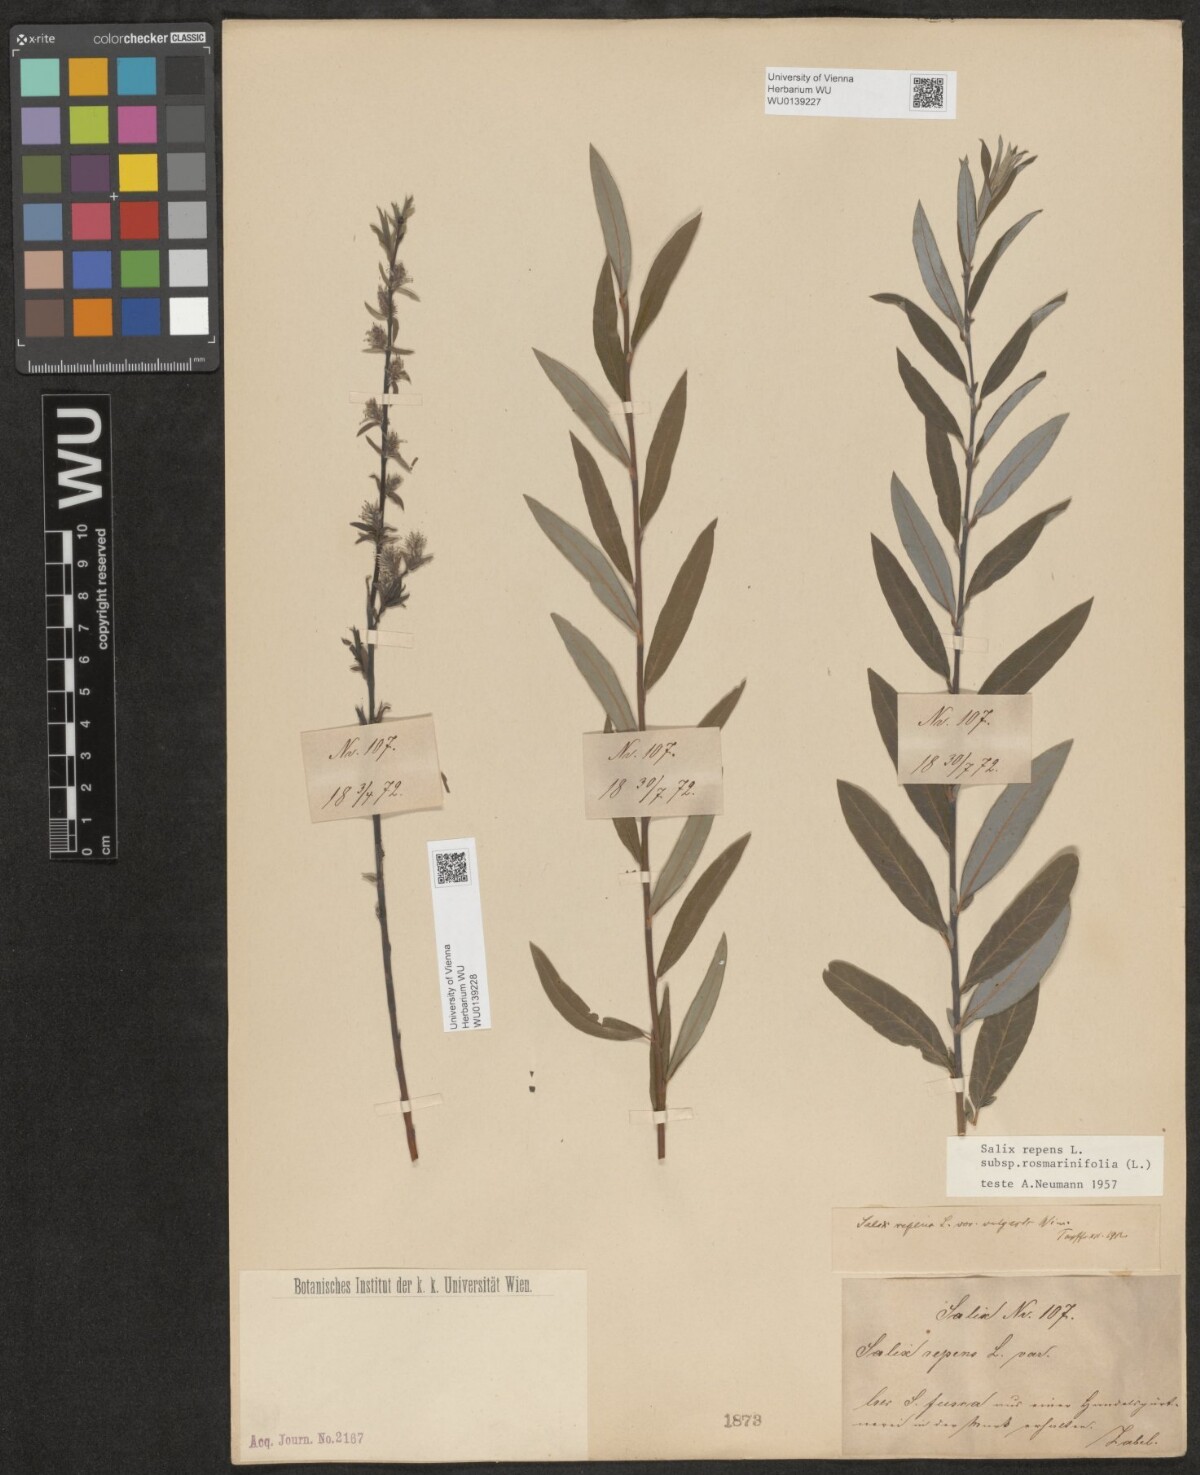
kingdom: Plantae
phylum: Tracheophyta
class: Magnoliopsida
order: Malpighiales
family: Salicaceae
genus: Salix
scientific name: Salix repens
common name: Creeping willow
